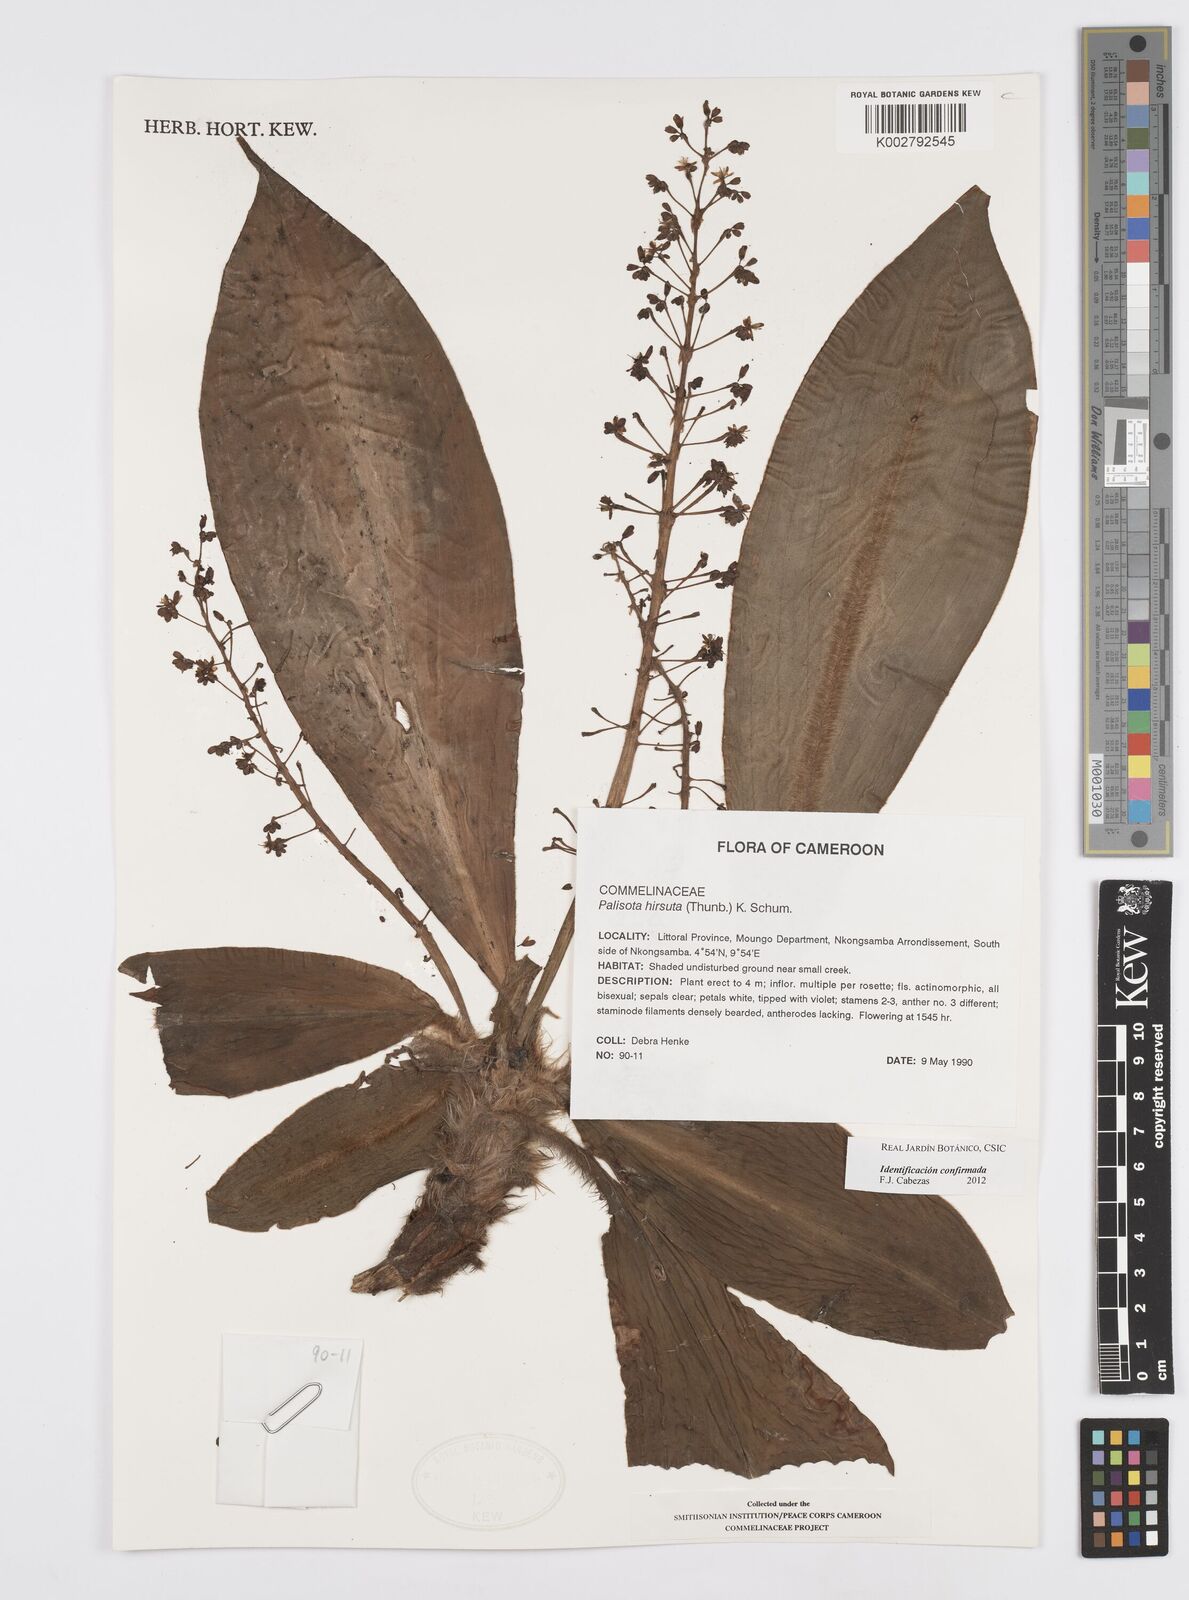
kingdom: Plantae
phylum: Tracheophyta
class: Liliopsida
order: Commelinales
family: Commelinaceae
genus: Palisota
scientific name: Palisota hirsuta
